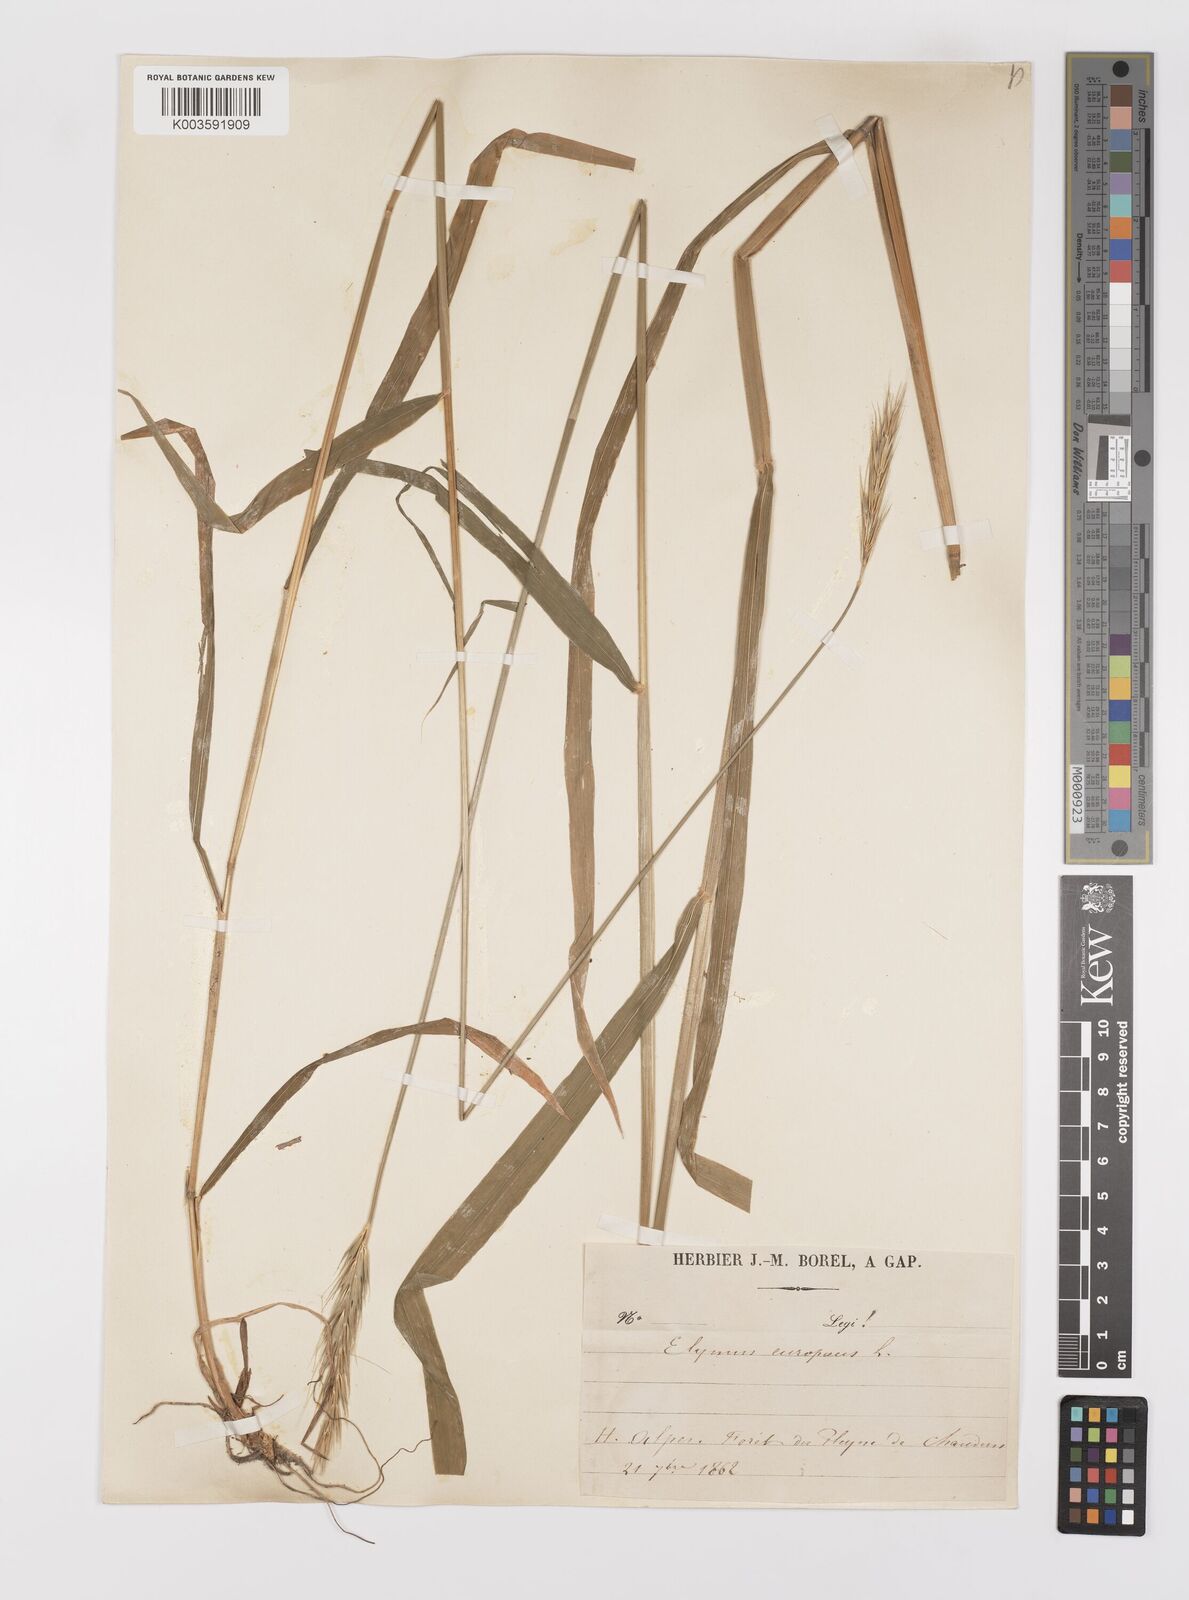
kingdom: Plantae
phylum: Tracheophyta
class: Liliopsida
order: Poales
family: Poaceae
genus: Hordelymus
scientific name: Hordelymus europaeus
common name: Wood-barley
